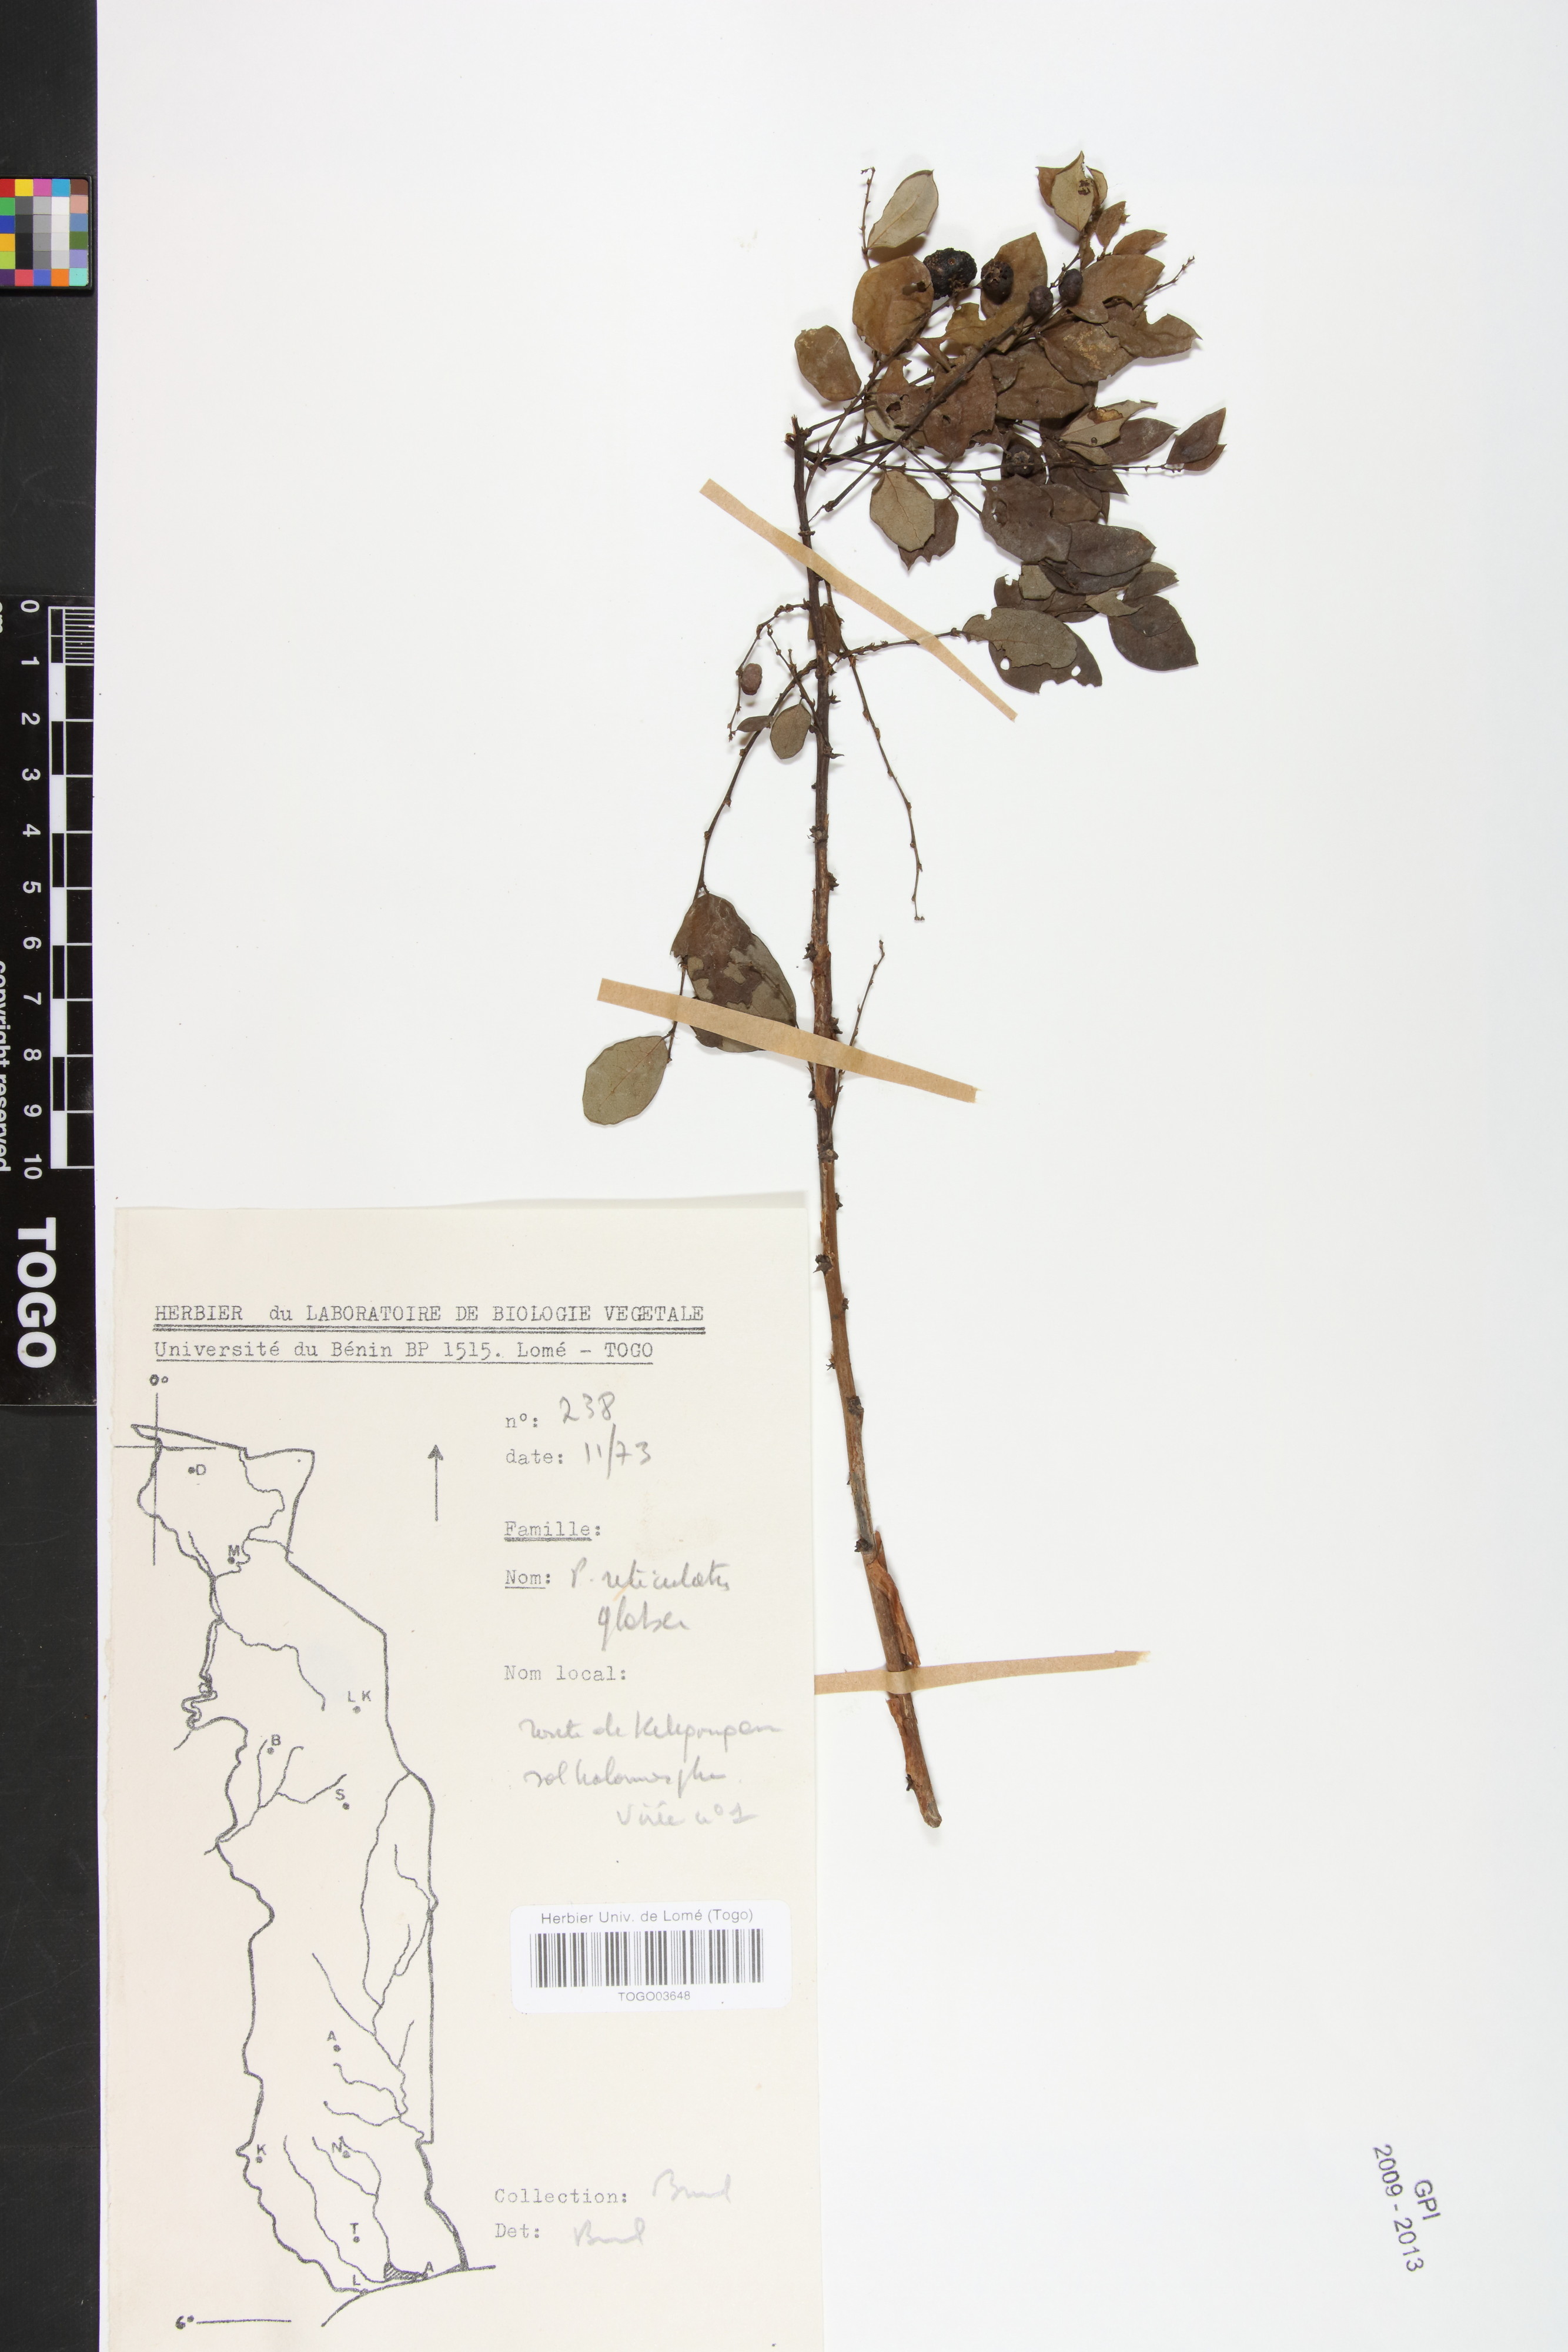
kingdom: Plantae
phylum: Tracheophyta
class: Magnoliopsida
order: Malpighiales
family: Phyllanthaceae
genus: Phyllanthus
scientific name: Phyllanthus reticulatus
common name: Potato bush
